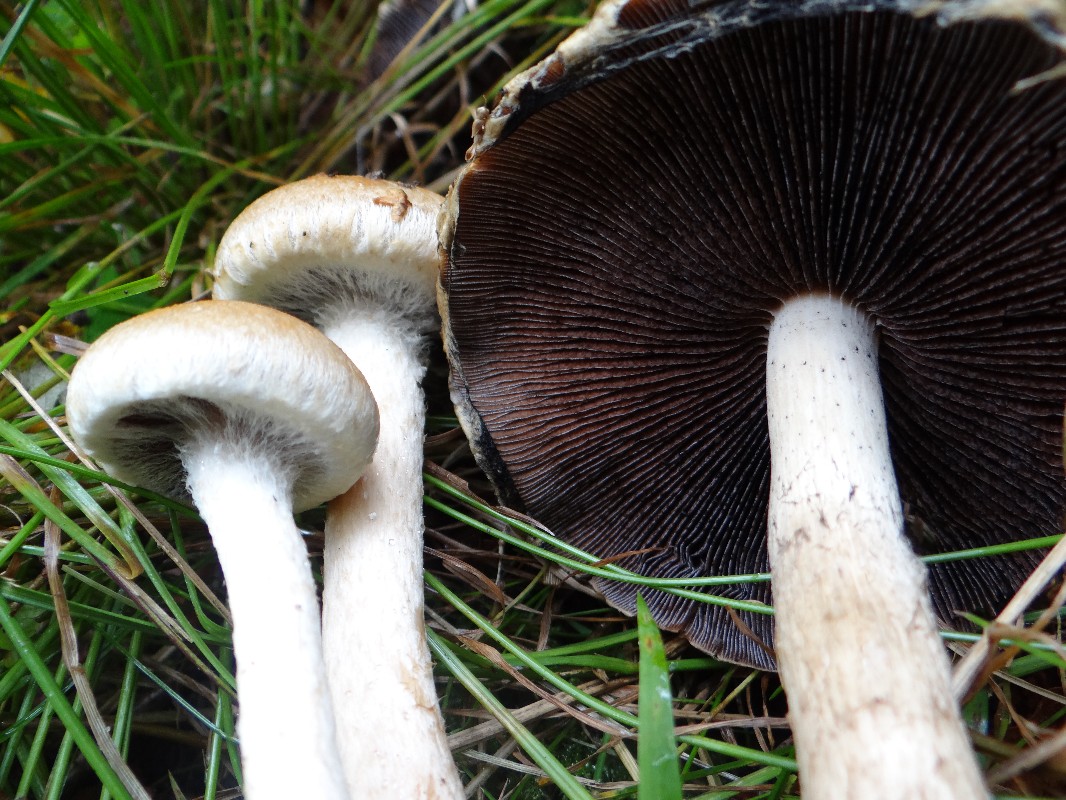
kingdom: Fungi
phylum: Basidiomycota
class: Agaricomycetes
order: Agaricales
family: Psathyrellaceae
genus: Lacrymaria
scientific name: Lacrymaria lacrymabunda
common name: grædende mørkhat
